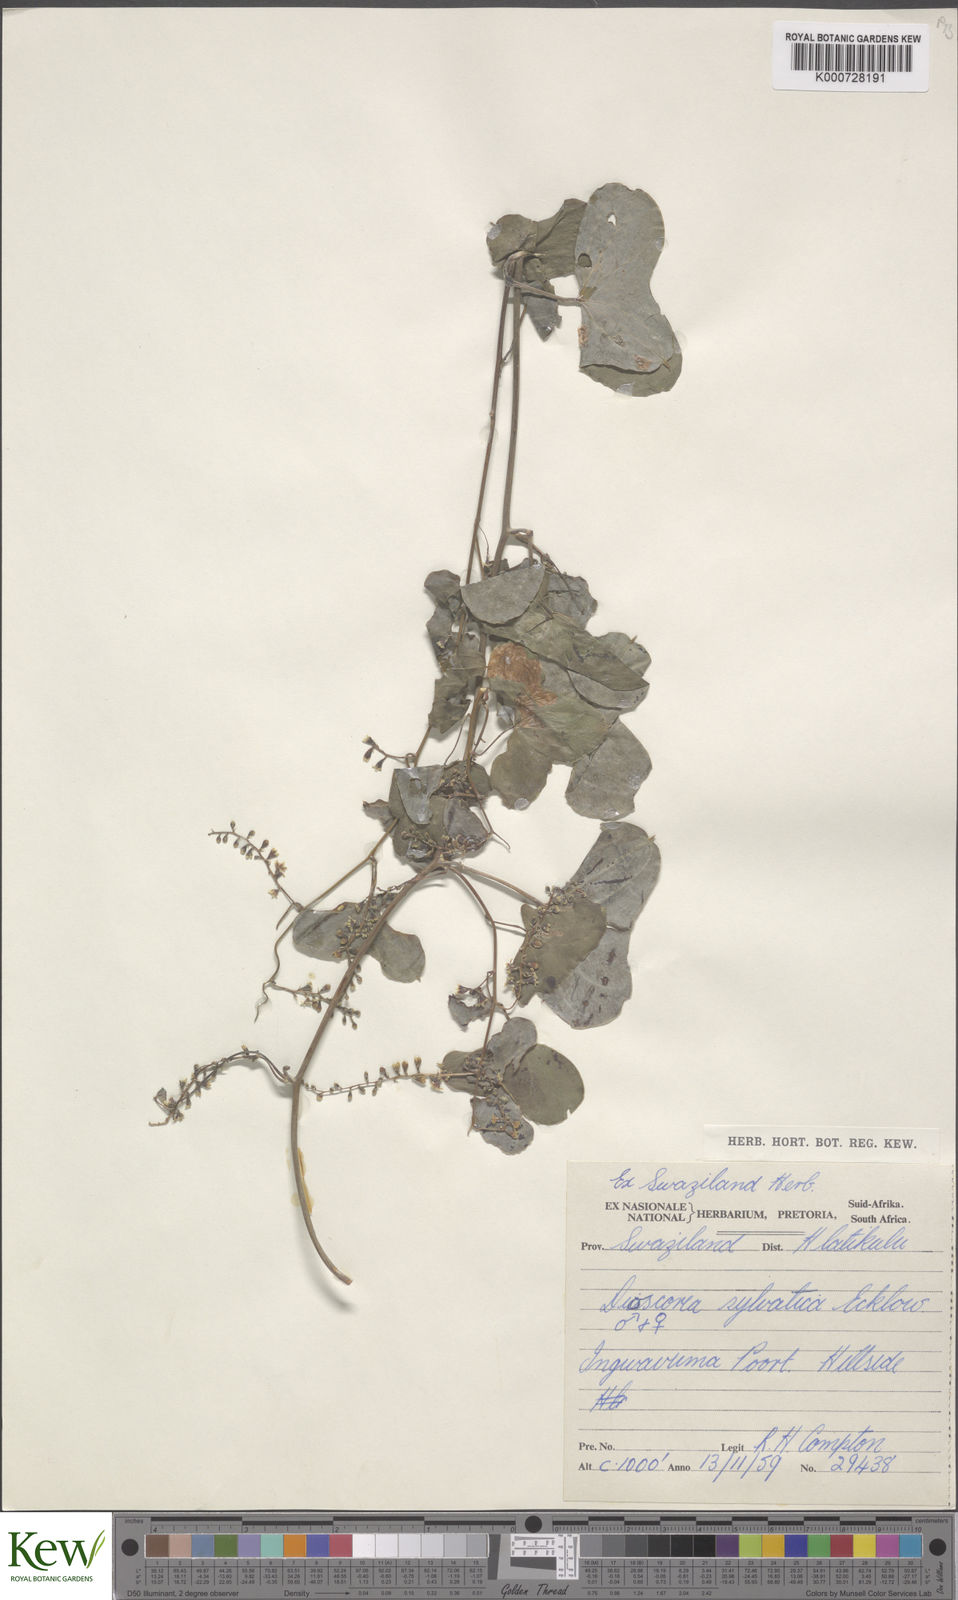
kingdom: Plantae
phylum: Tracheophyta
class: Liliopsida
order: Dioscoreales
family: Dioscoreaceae
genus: Dioscorea
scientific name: Dioscorea sylvatica
